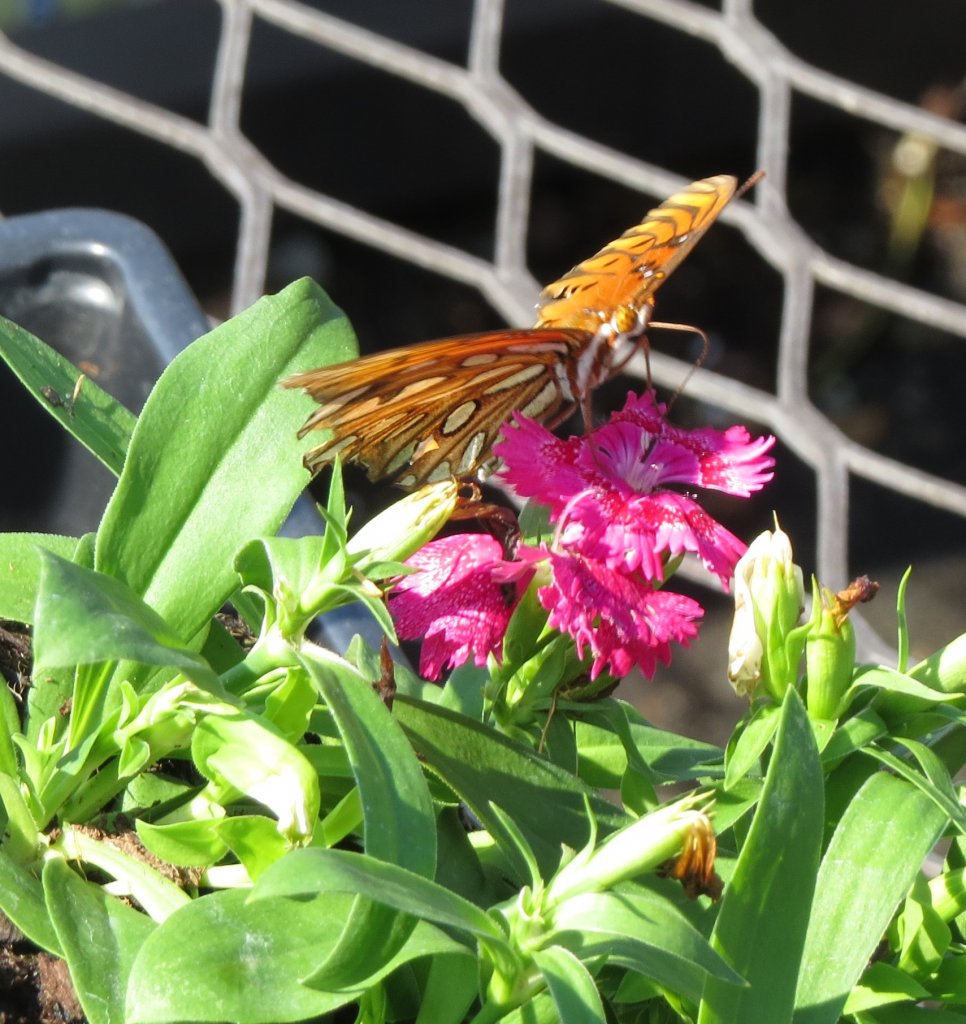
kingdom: Animalia
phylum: Arthropoda
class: Insecta
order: Lepidoptera
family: Nymphalidae
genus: Dione
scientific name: Dione vanillae
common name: Gulf Fritillary
